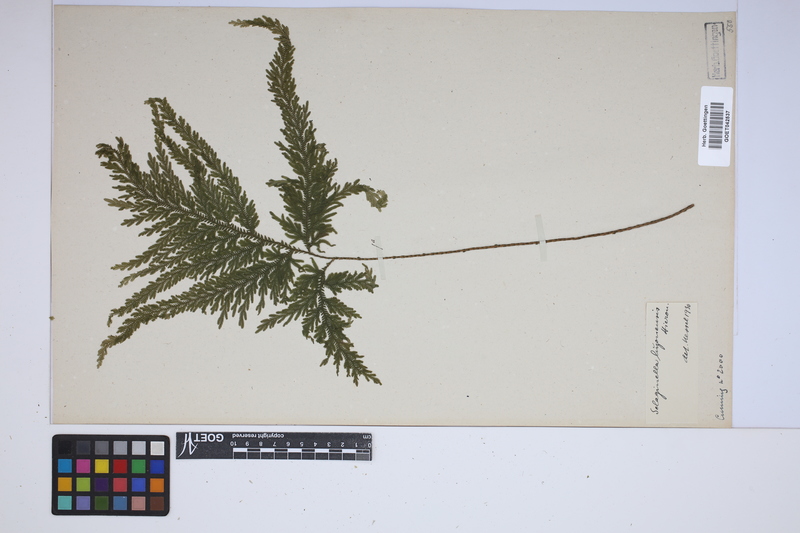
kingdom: Plantae
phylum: Tracheophyta
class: Lycopodiopsida
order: Selaginellales
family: Selaginellaceae
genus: Selaginella
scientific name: Selaginella luzonensis
